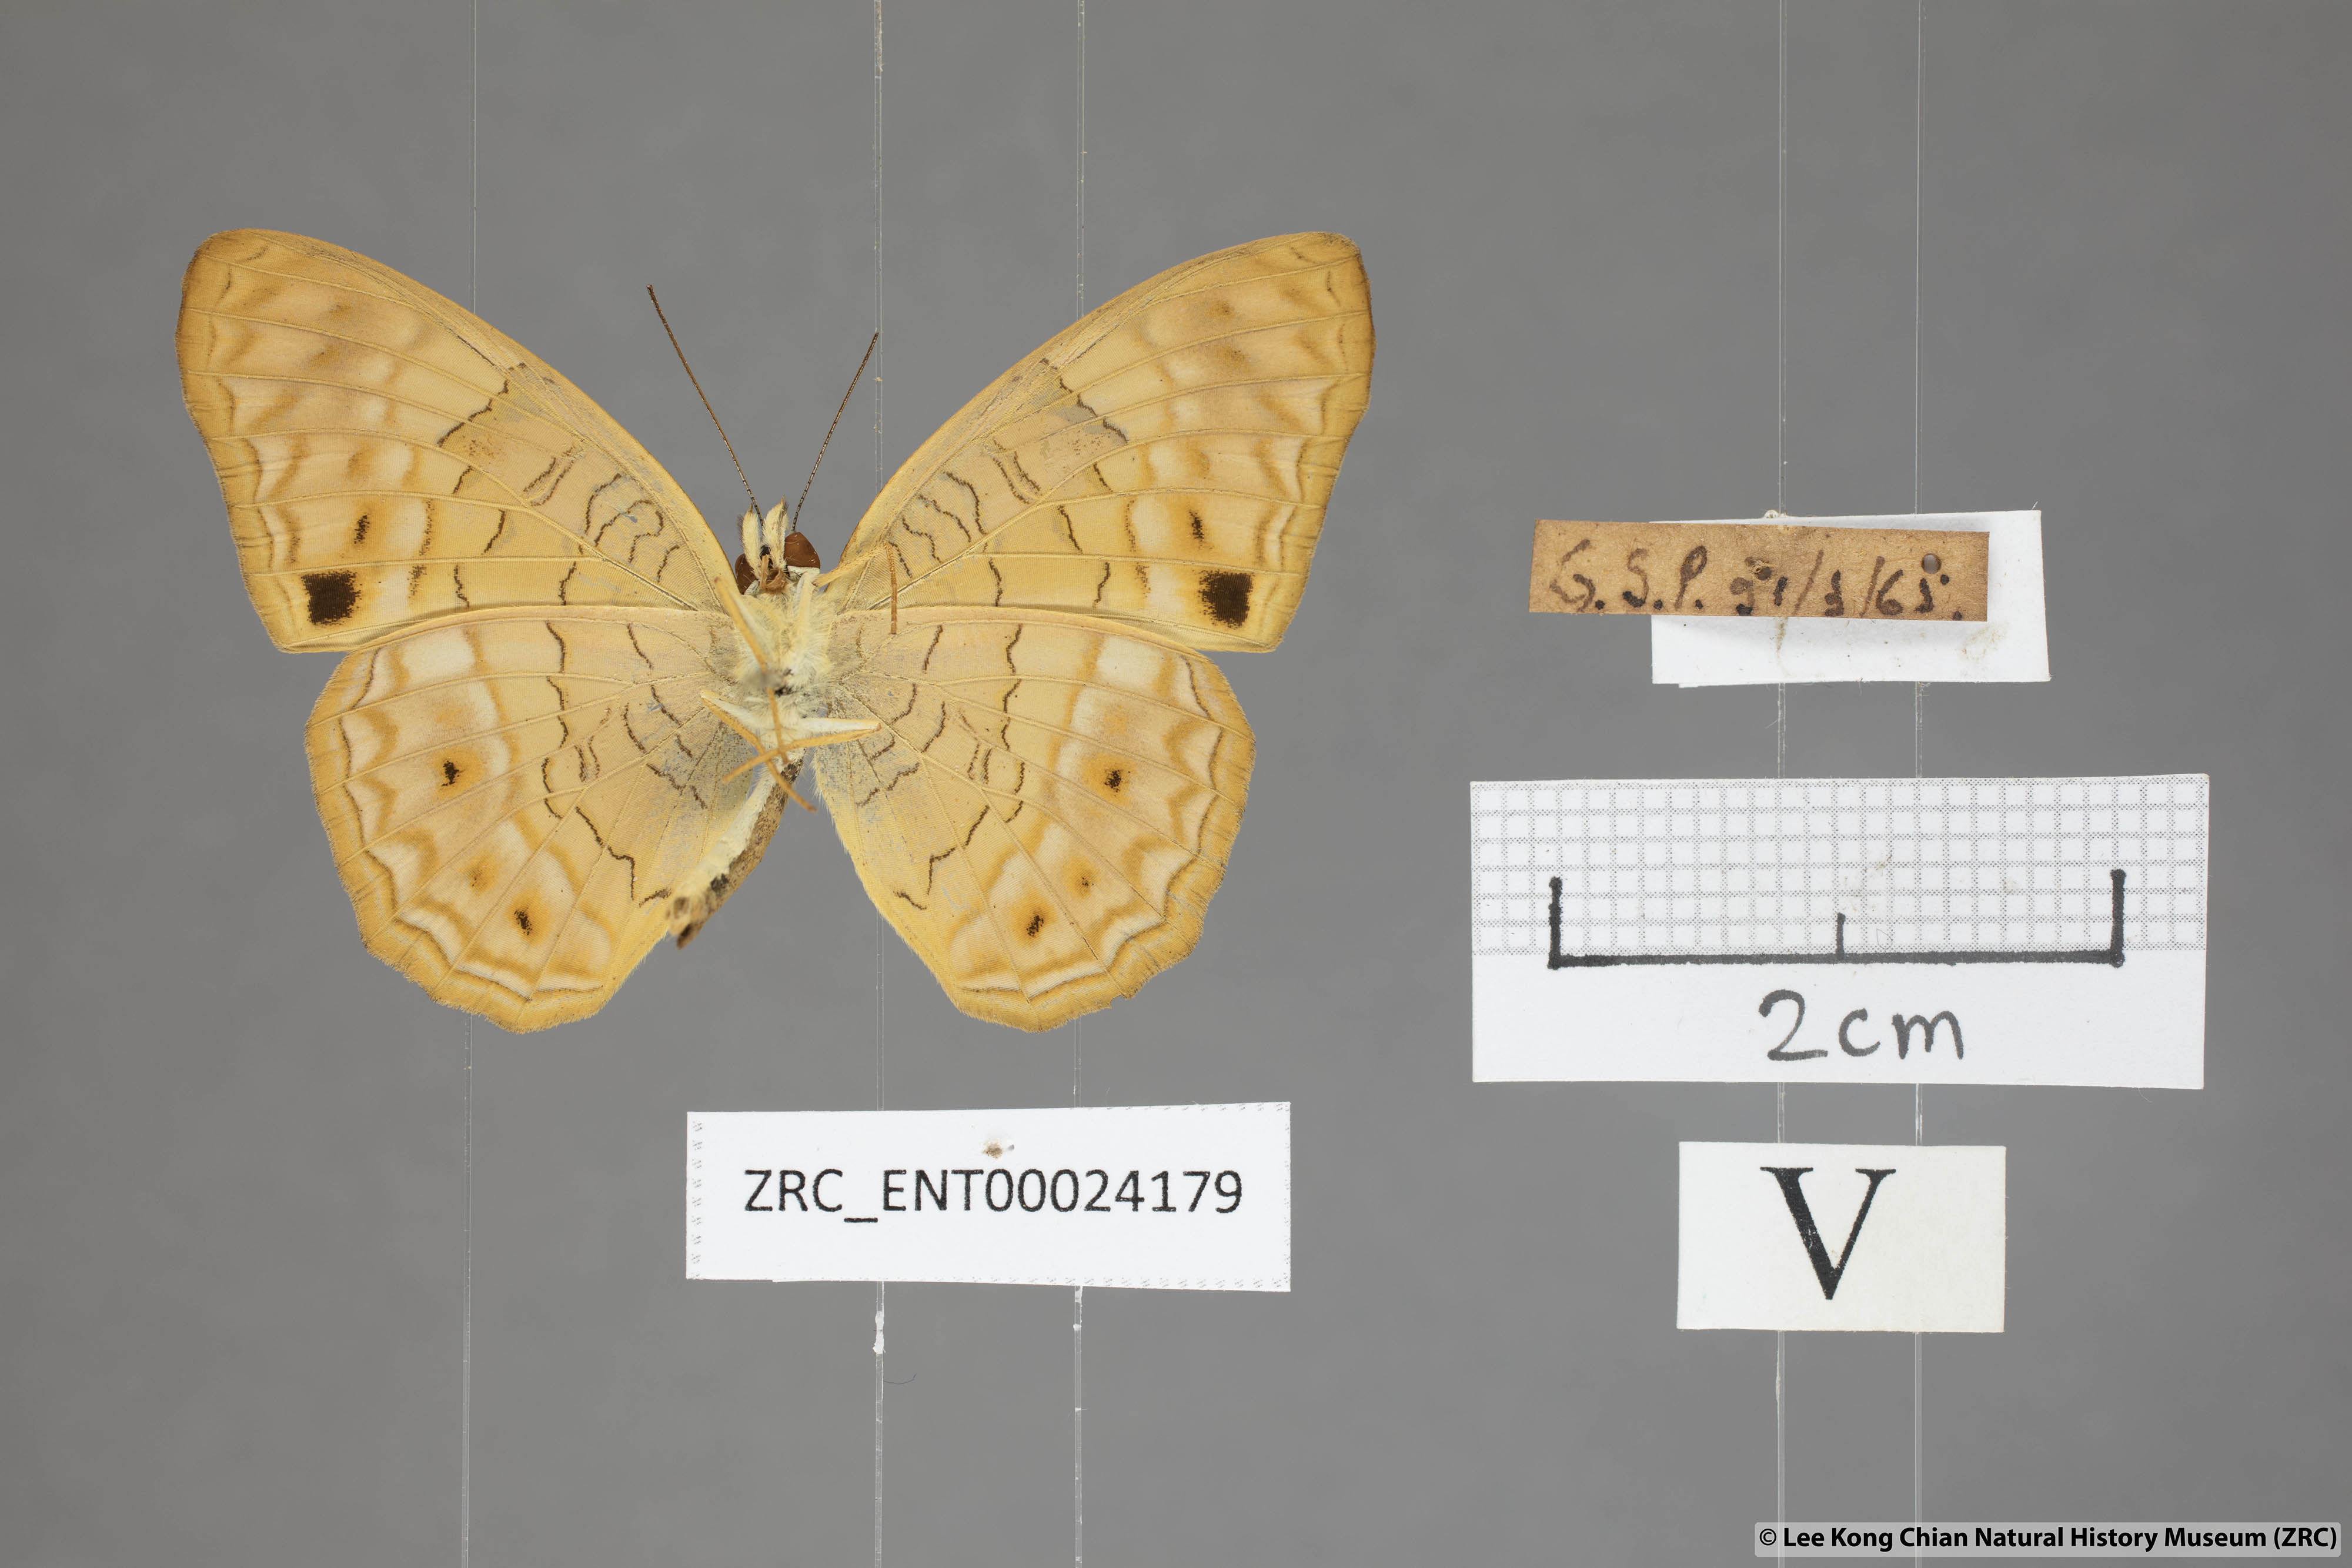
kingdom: Animalia
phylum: Arthropoda
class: Insecta
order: Lepidoptera
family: Nymphalidae
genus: Phalanta
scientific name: Phalanta alcippe
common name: Small leopard
